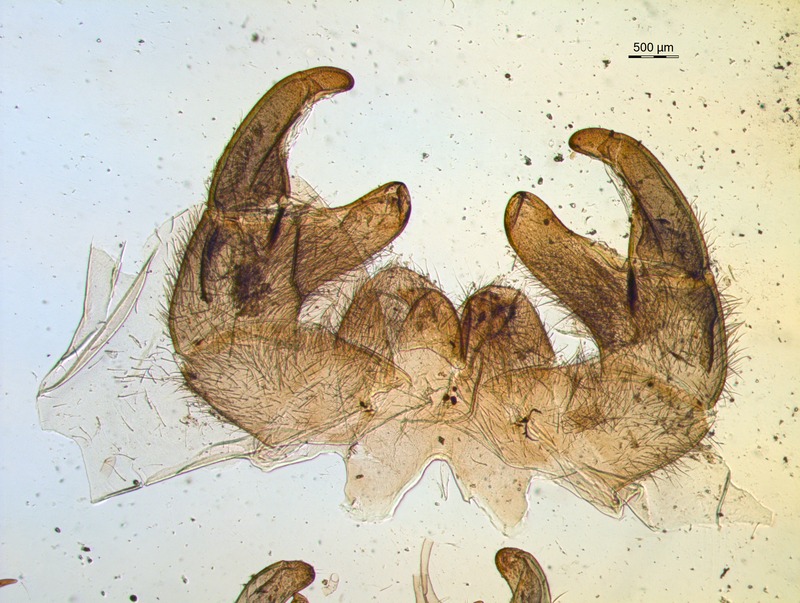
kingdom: Animalia
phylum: Arthropoda
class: Diplopoda
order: Sphaerotheriida
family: Zephroniidae
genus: Sphaeropoeus
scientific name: Sphaeropoeus
